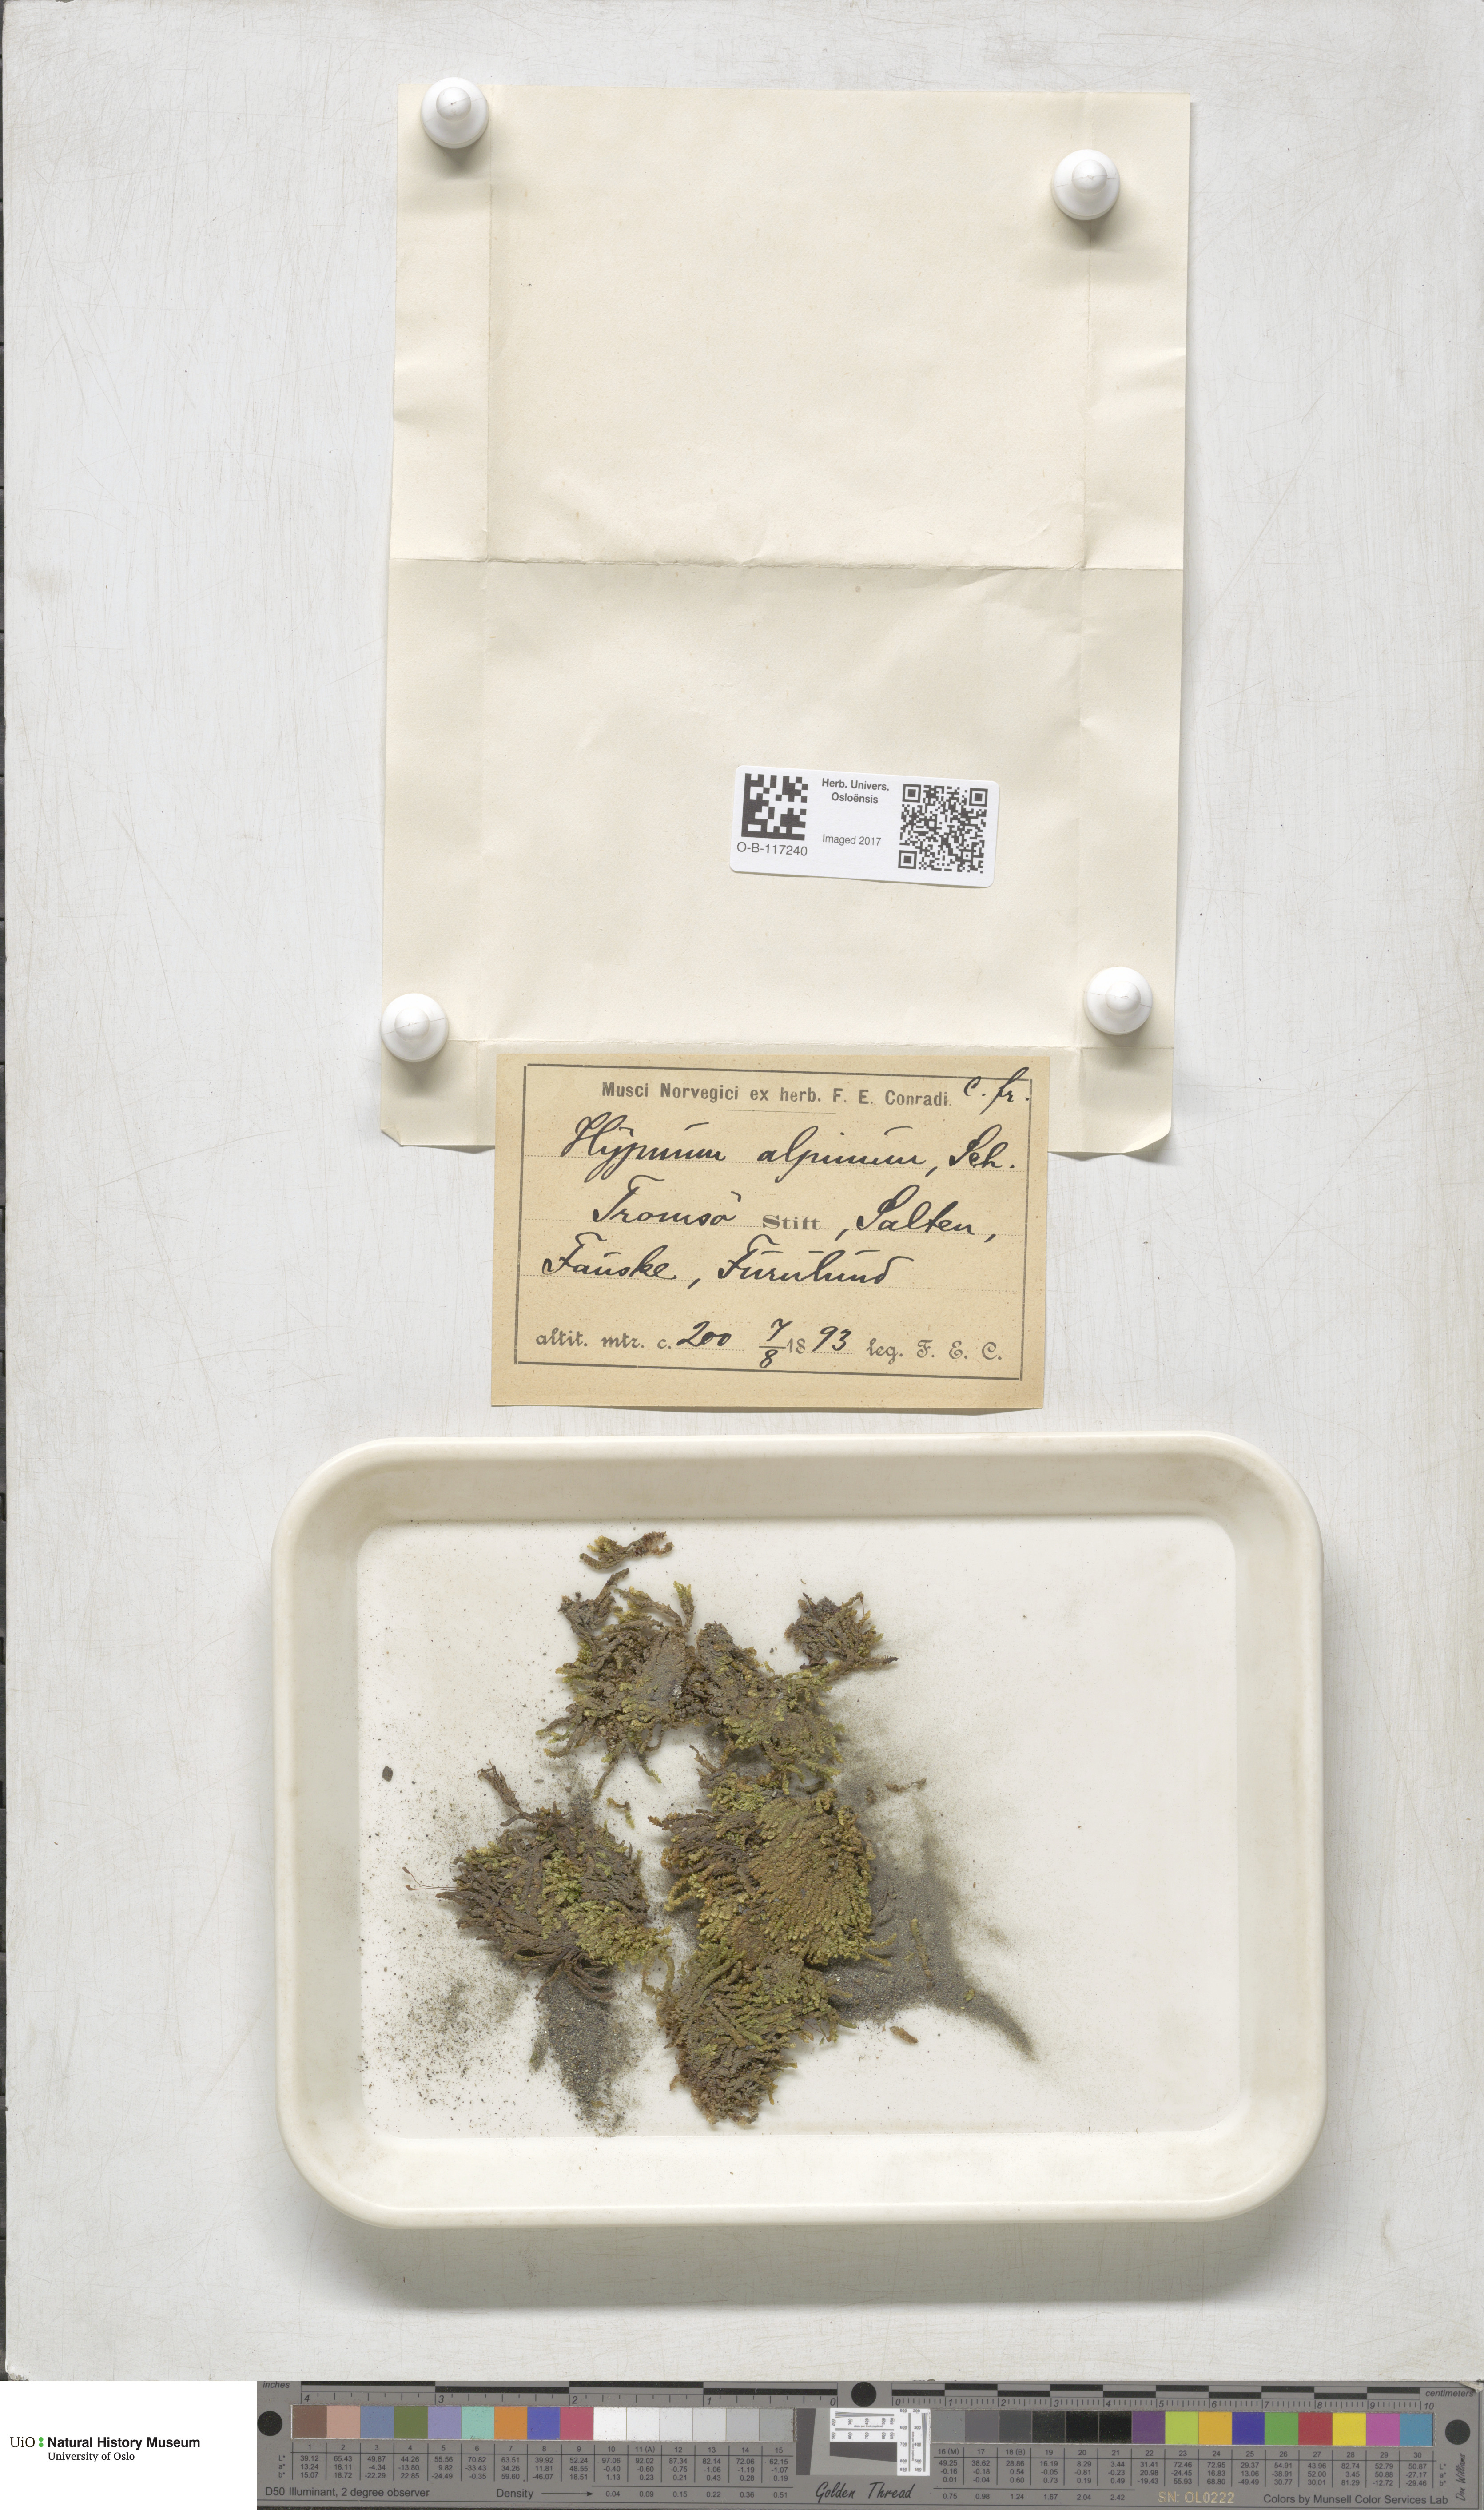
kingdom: Plantae
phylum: Bryophyta
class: Bryopsida
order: Hypnales
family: Amblystegiaceae
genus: Platyhypnum
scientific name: Platyhypnum alpinum
